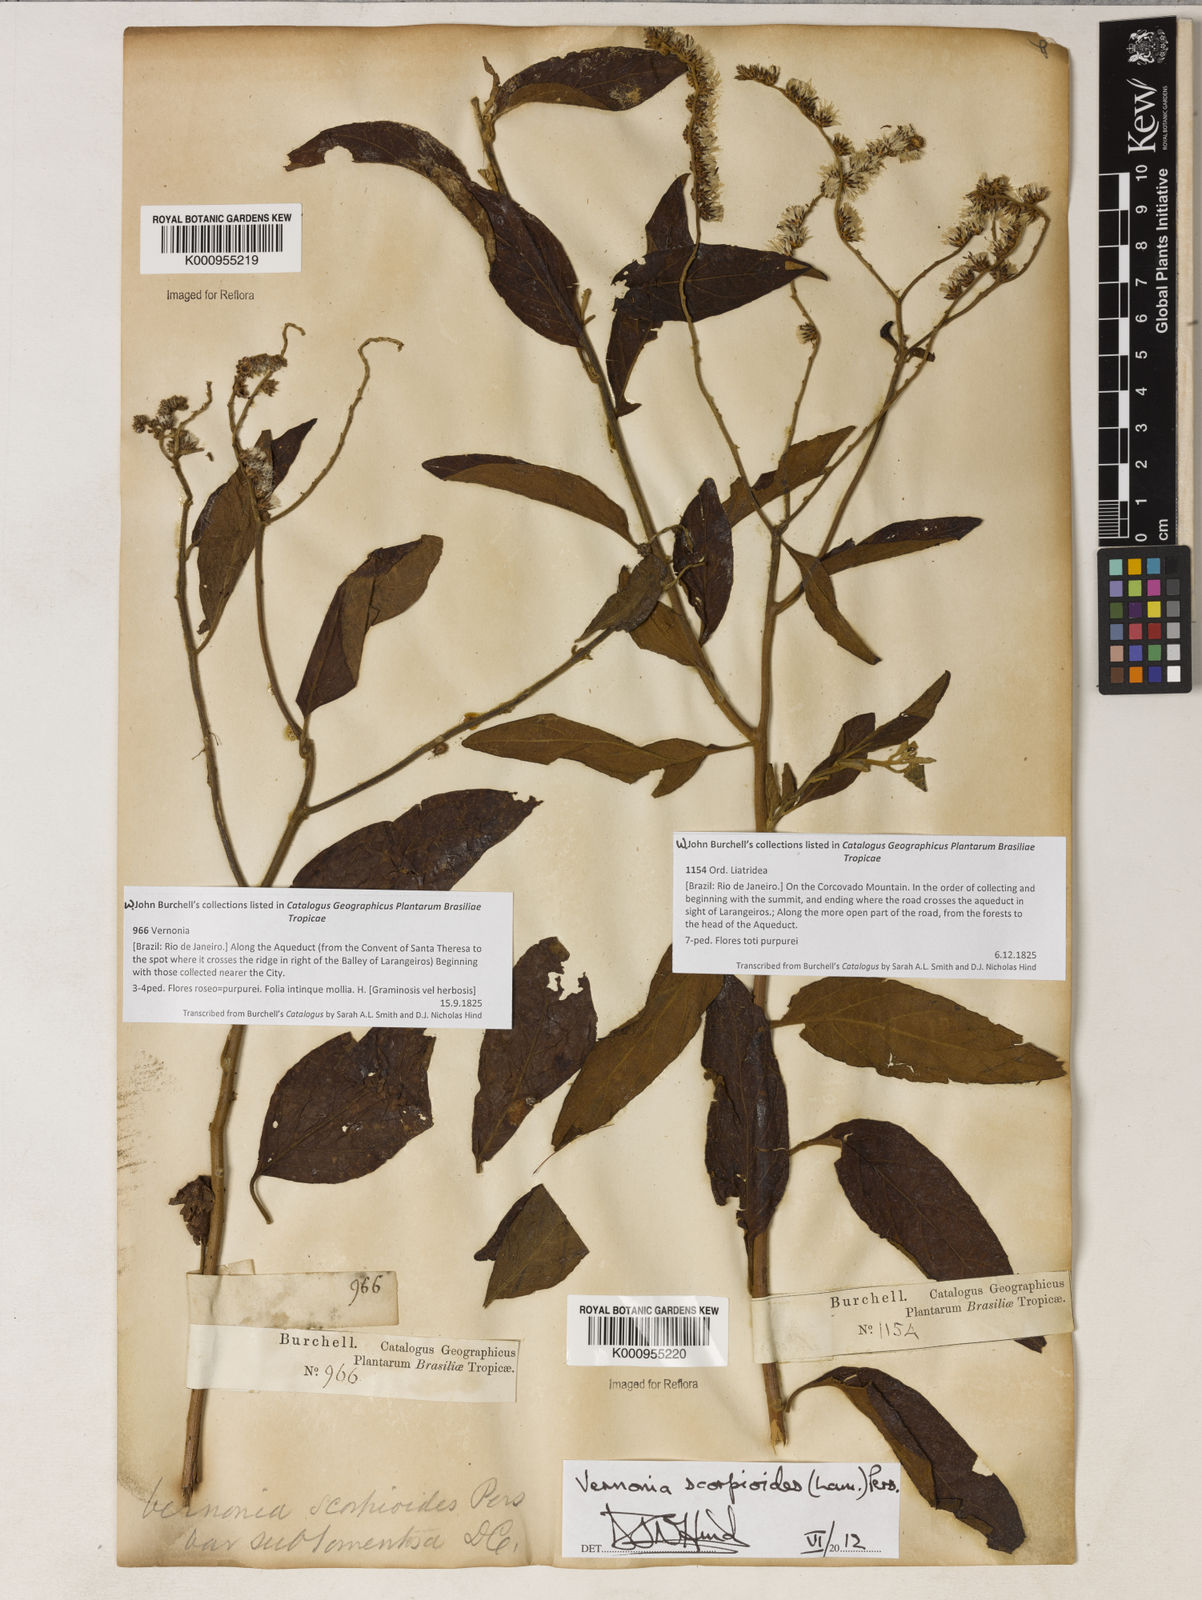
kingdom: Plantae
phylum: Tracheophyta
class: Magnoliopsida
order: Asterales
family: Asteraceae
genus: Cyrtocymura
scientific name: Cyrtocymura scorpioides
